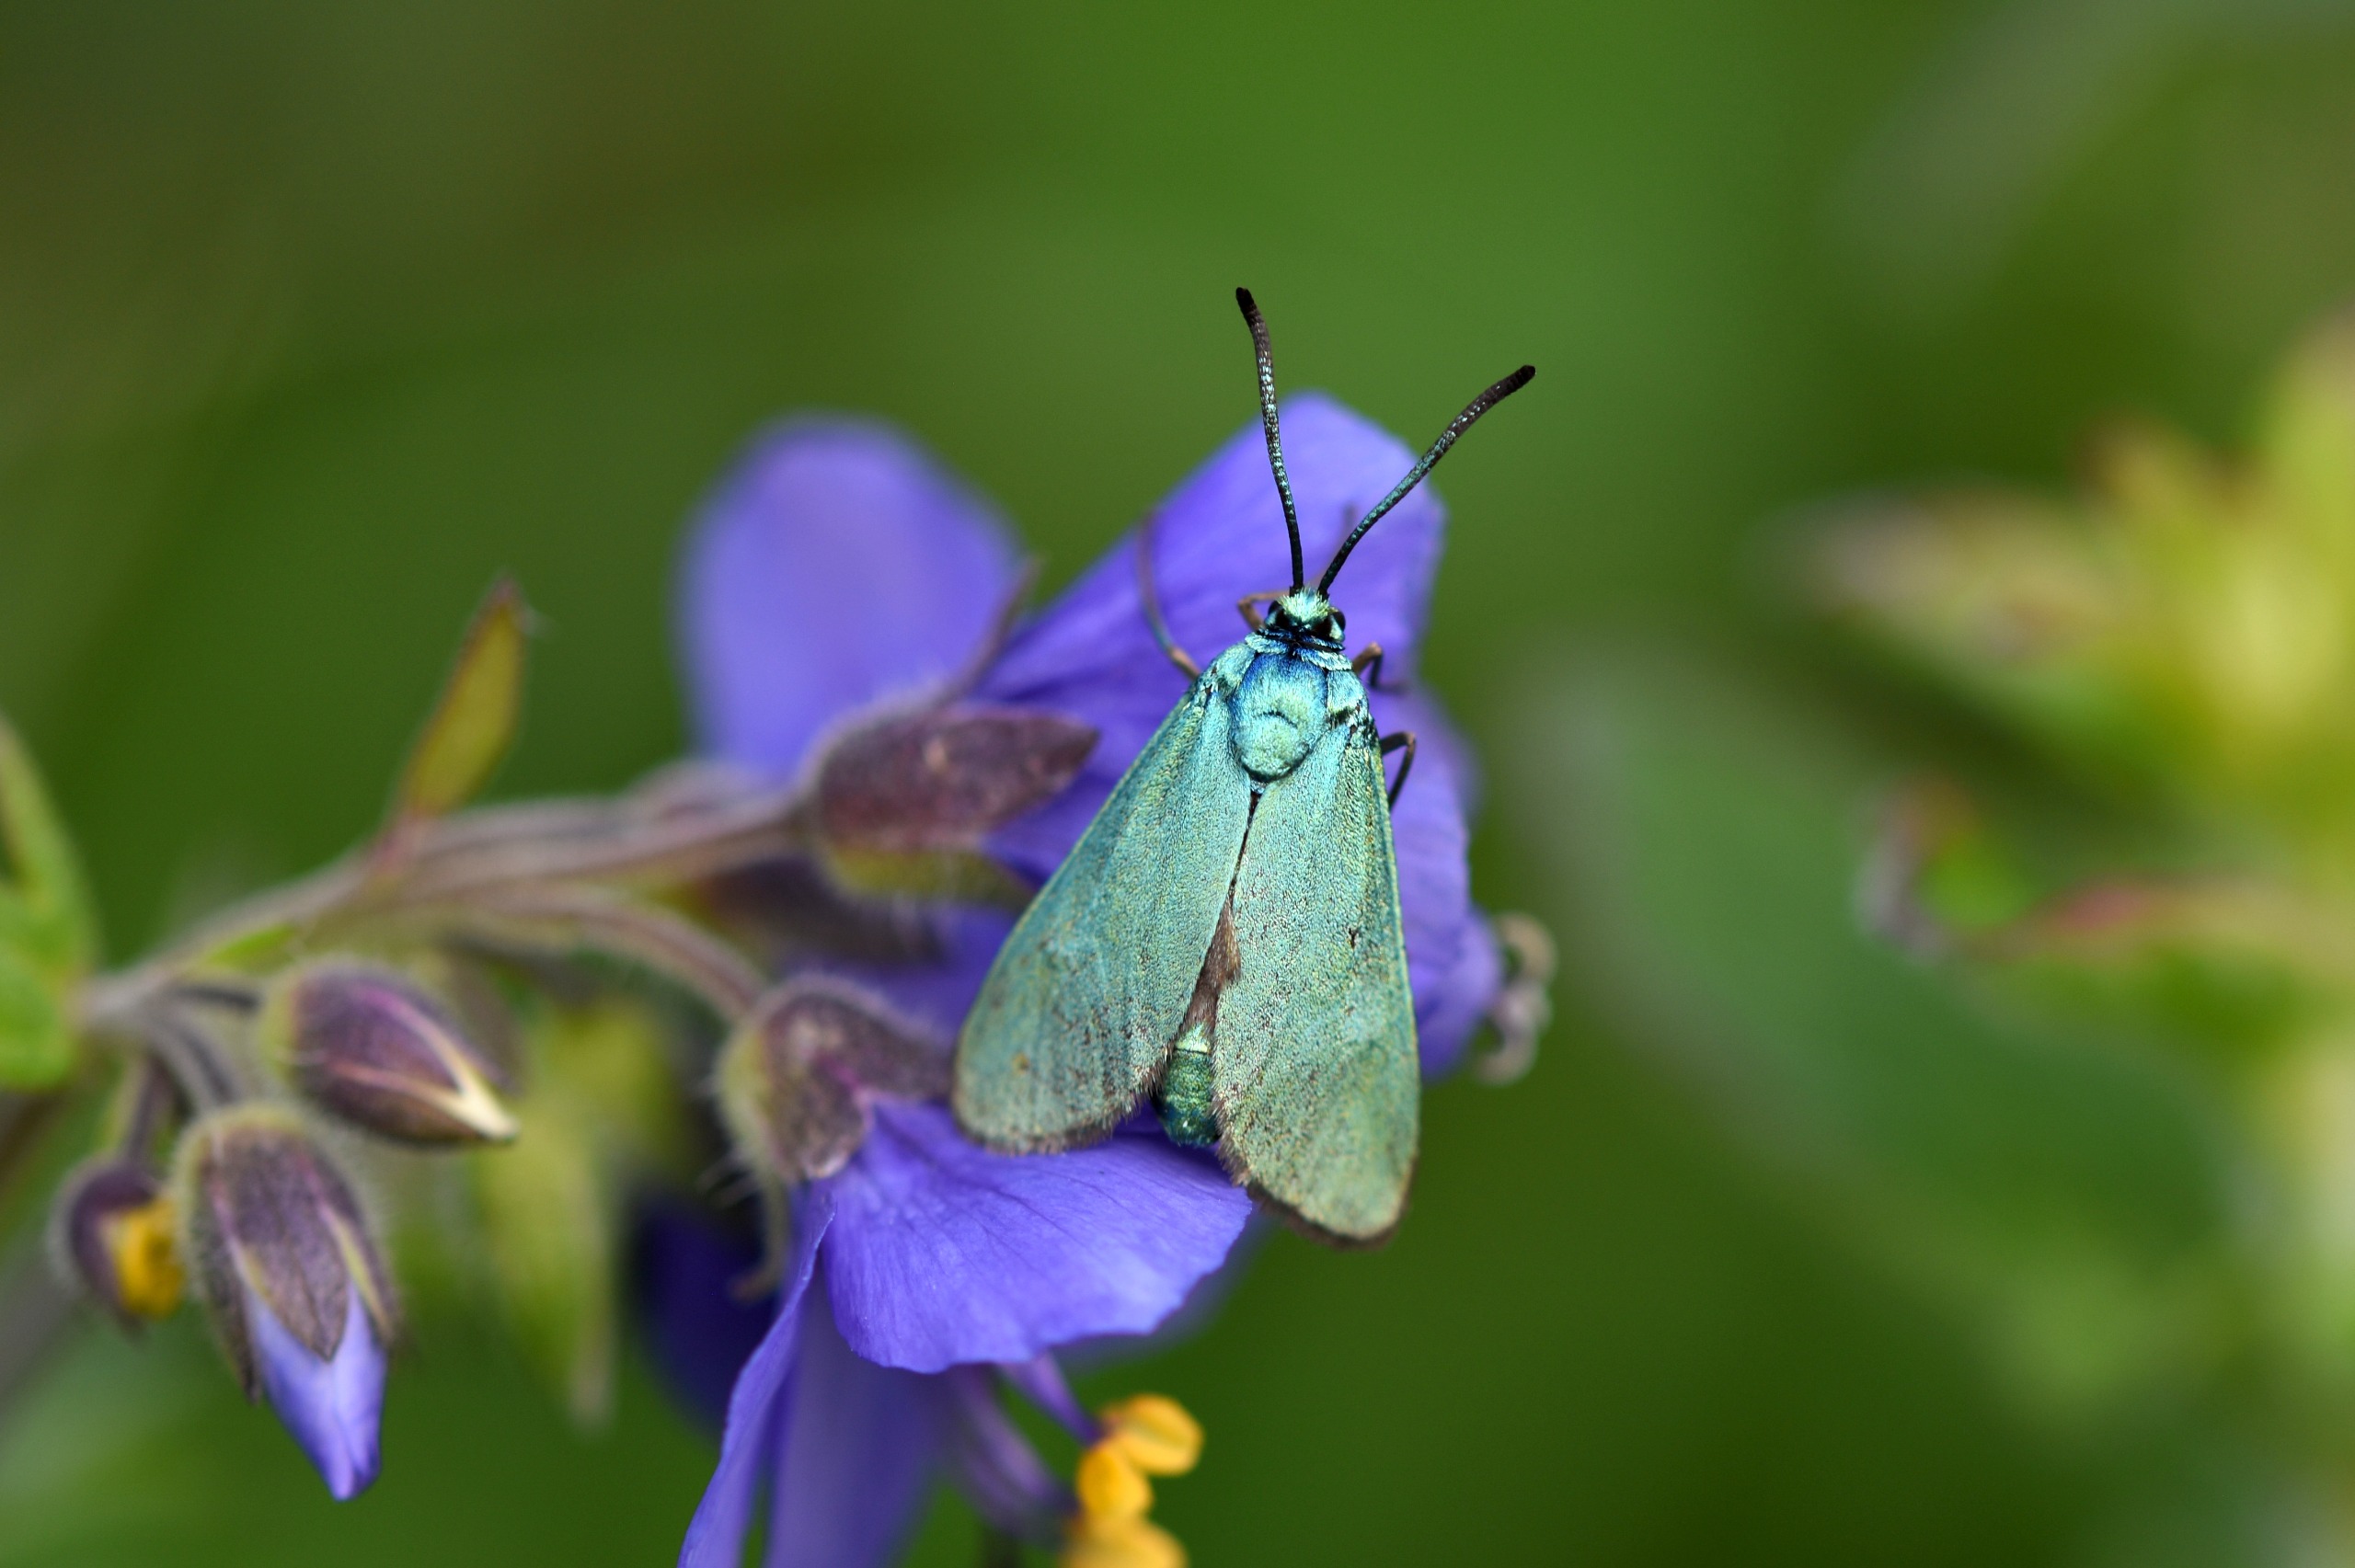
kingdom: Animalia
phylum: Arthropoda
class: Insecta
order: Lepidoptera
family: Zygaenidae
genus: Adscita
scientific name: Adscita statices
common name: Metalvinge
